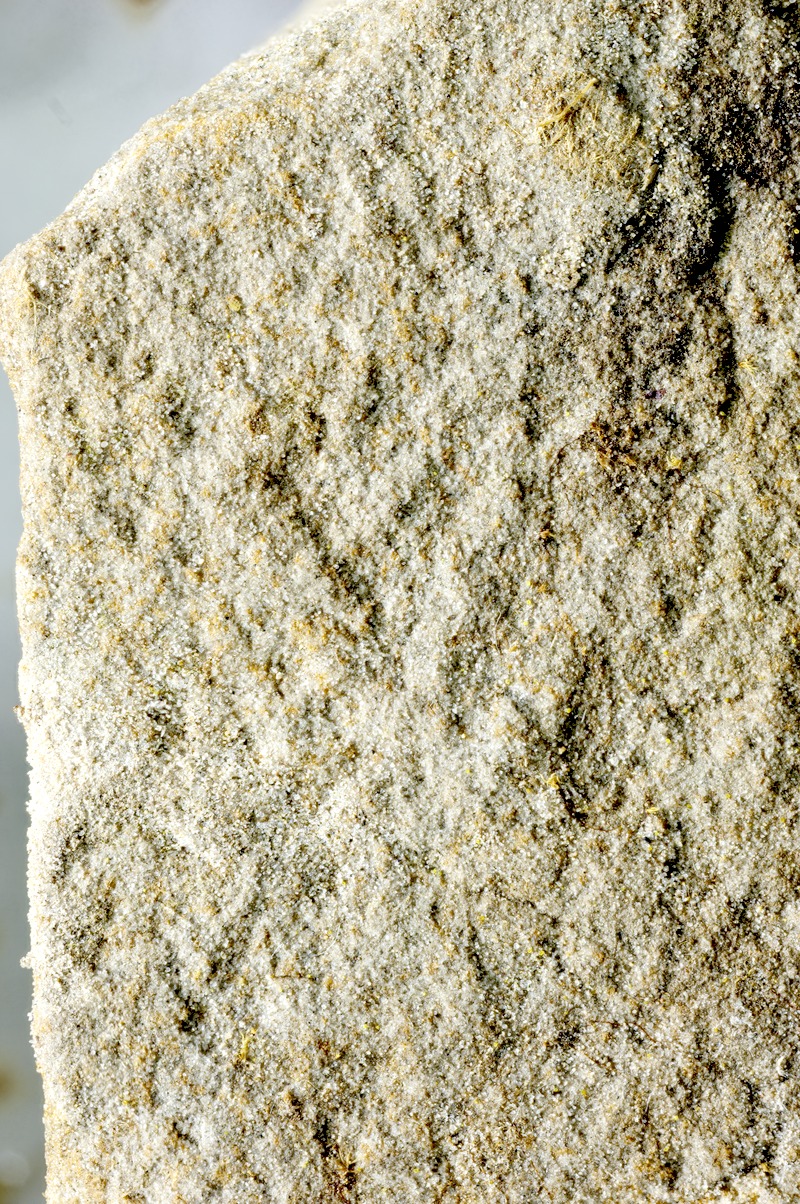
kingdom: Fungi
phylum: Ascomycota
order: Thelocarpales
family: Thelocarpaceae
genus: Thelocarpon
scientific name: Thelocarpon lichenicola
